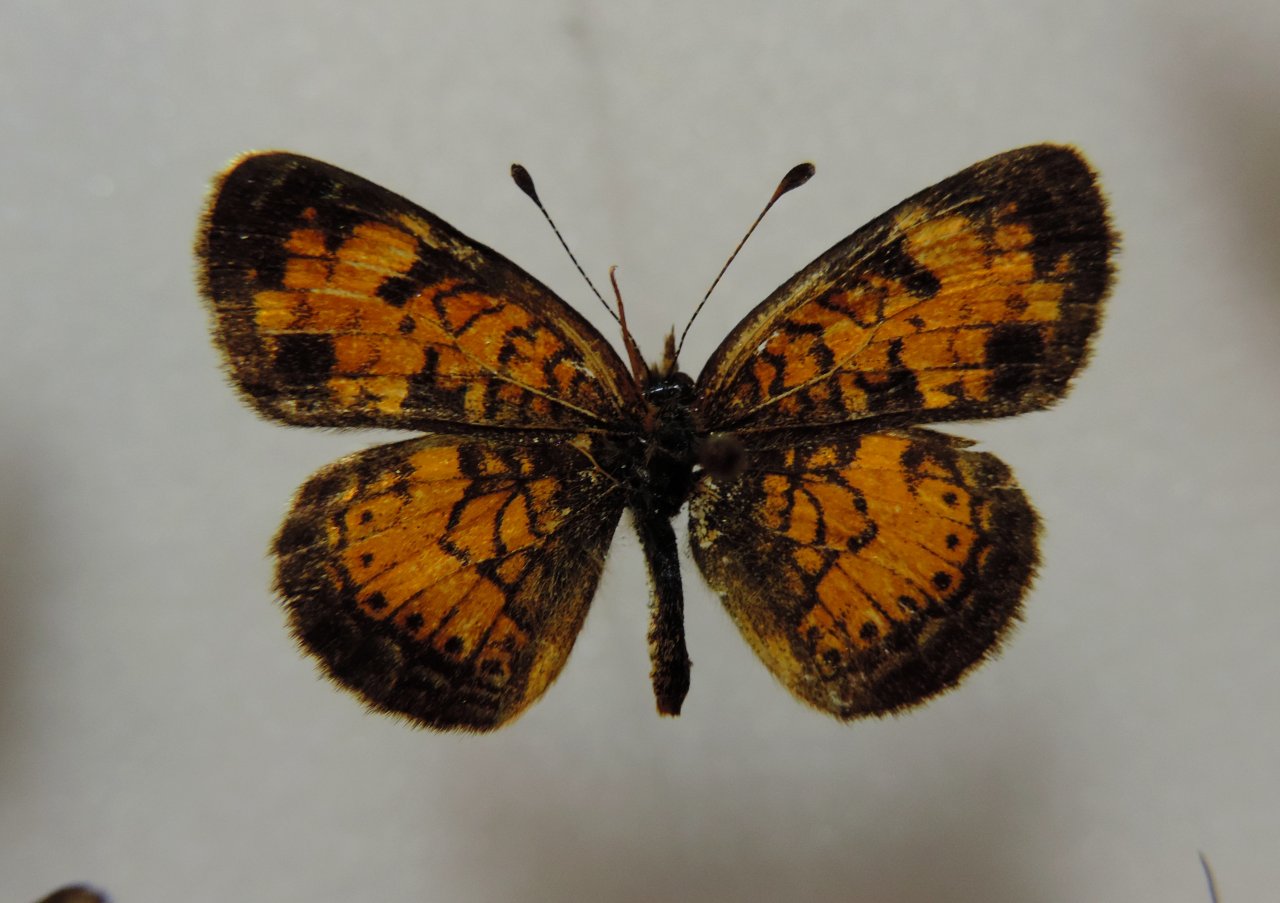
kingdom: Animalia
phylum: Arthropoda
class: Insecta
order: Lepidoptera
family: Nymphalidae
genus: Phyciodes
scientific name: Phyciodes tharos
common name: Northern Crescent
